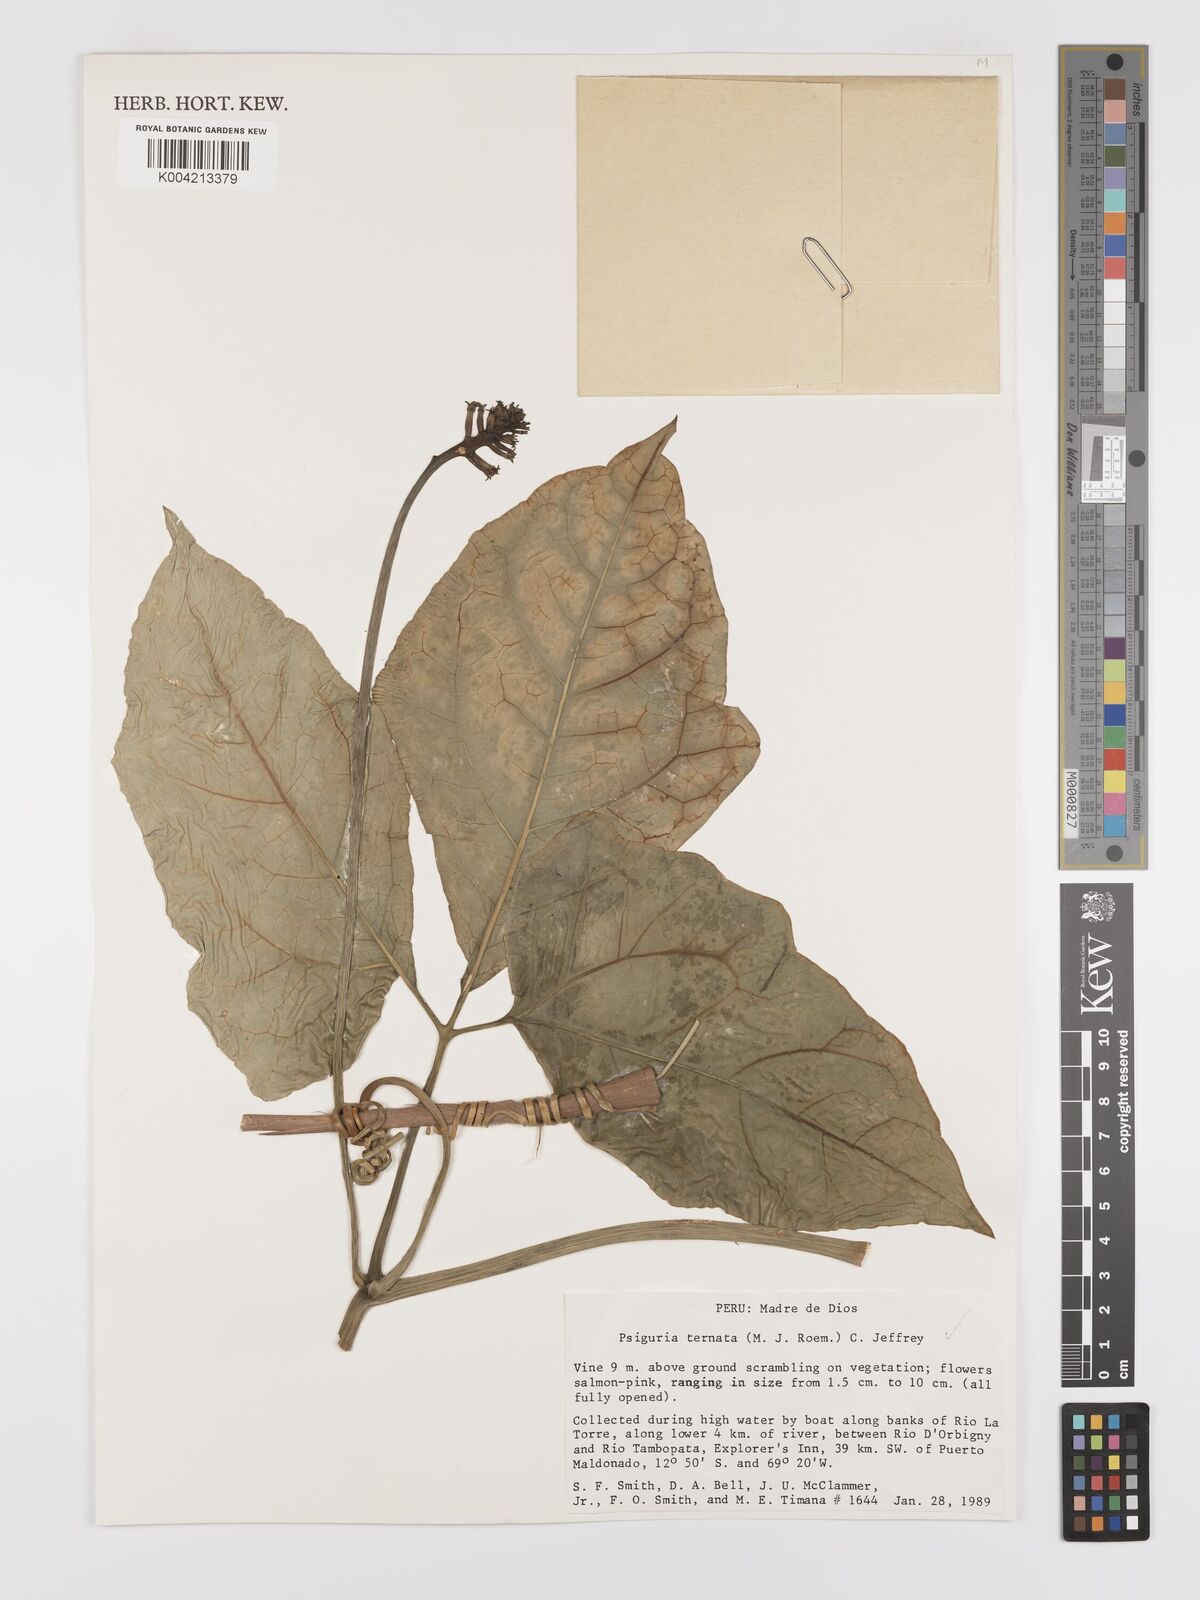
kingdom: Plantae
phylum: Tracheophyta
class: Magnoliopsida
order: Cucurbitales
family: Cucurbitaceae
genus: Psiguria
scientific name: Psiguria ternata
